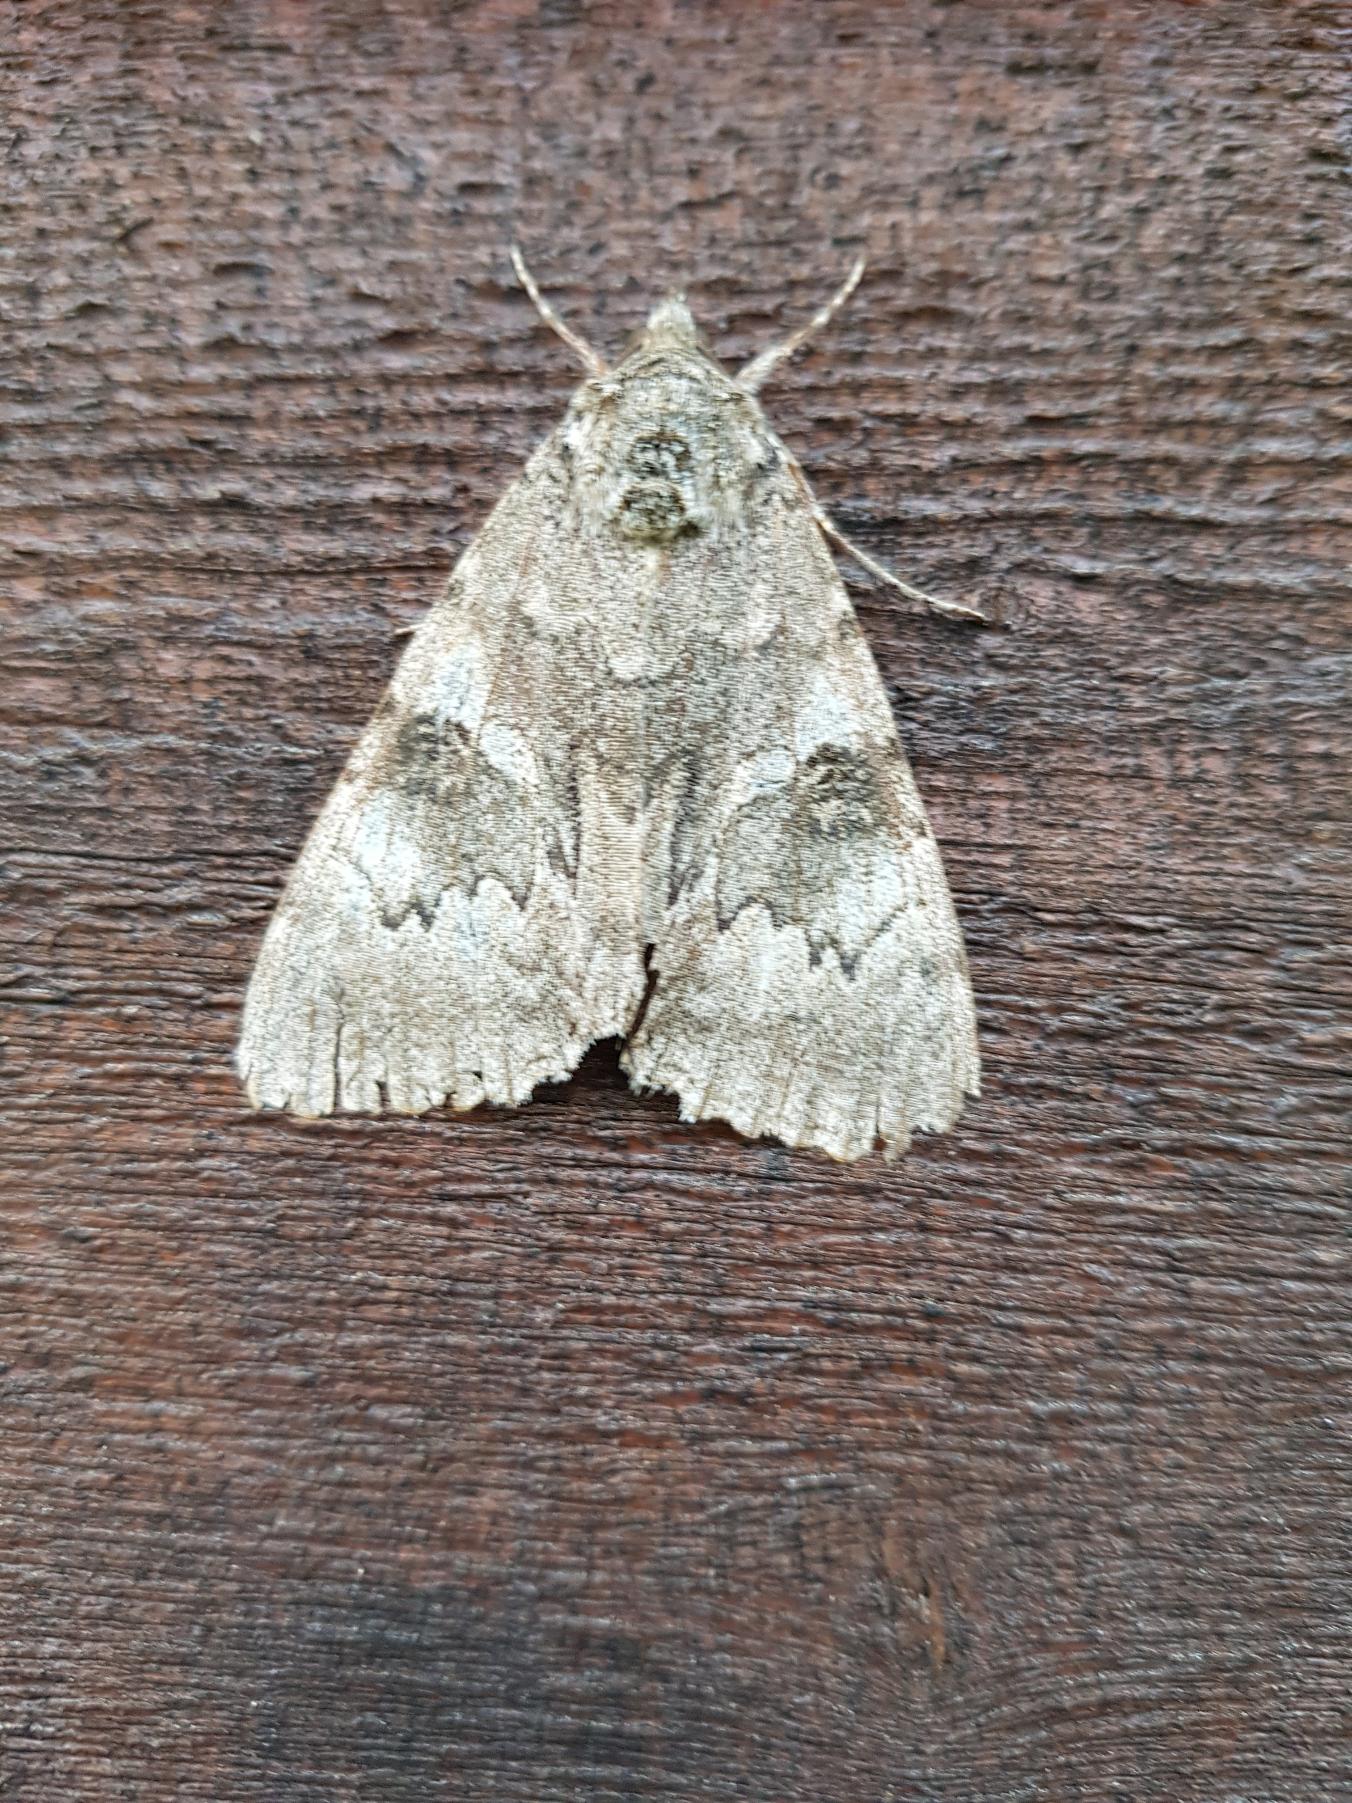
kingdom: Animalia
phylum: Arthropoda
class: Insecta
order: Lepidoptera
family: Erebidae
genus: Catocala
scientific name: Catocala nupta
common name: Rødt ordensbånd
